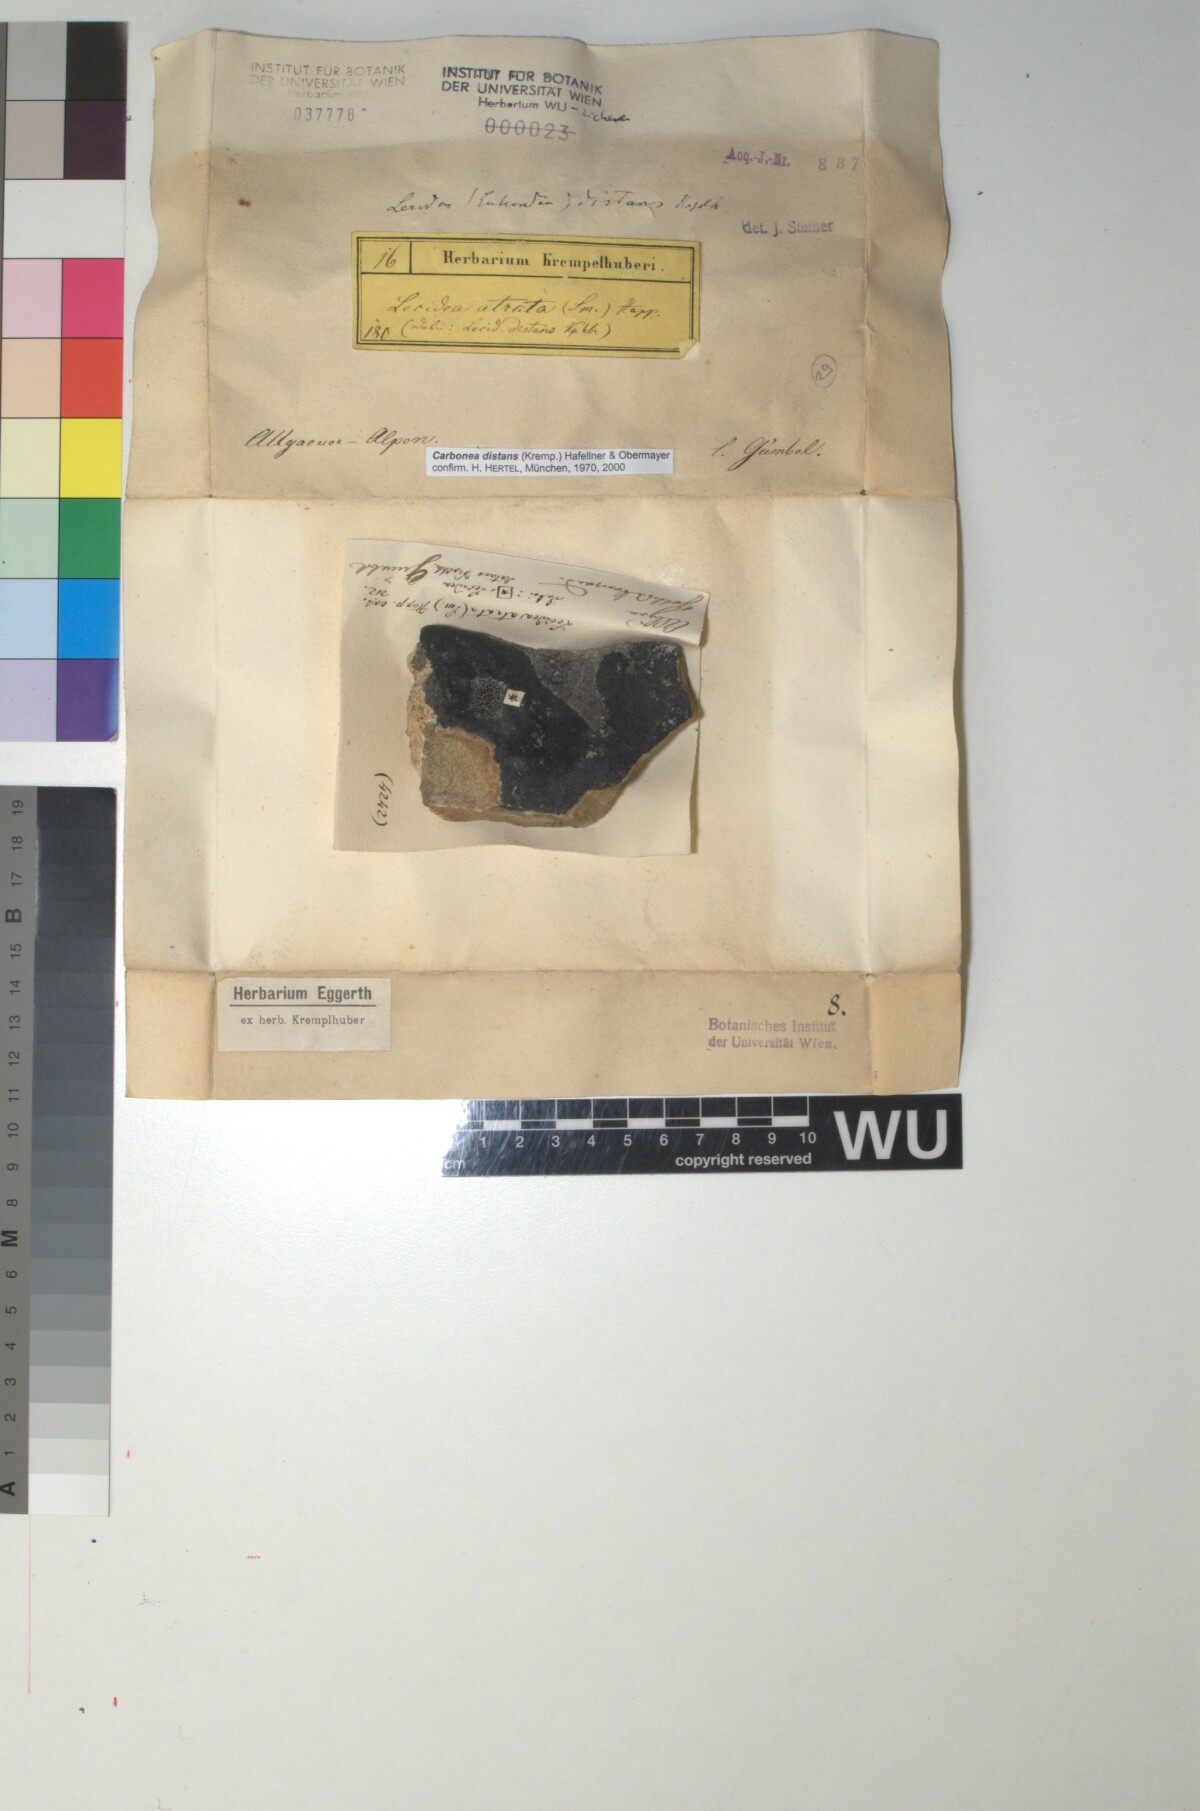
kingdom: Fungi
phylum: Ascomycota
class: Lecanoromycetes
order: Lecanorales
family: Lecanoraceae
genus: Lecidella
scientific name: Lecidella pulveracea
